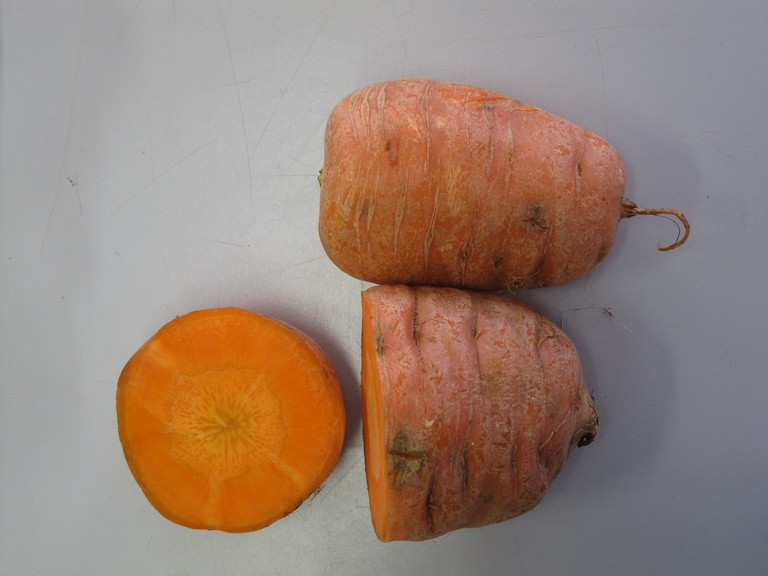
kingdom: Plantae
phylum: Tracheophyta
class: Magnoliopsida
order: Apiales
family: Apiaceae
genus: Daucus
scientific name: Daucus carota
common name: Wild carrot
